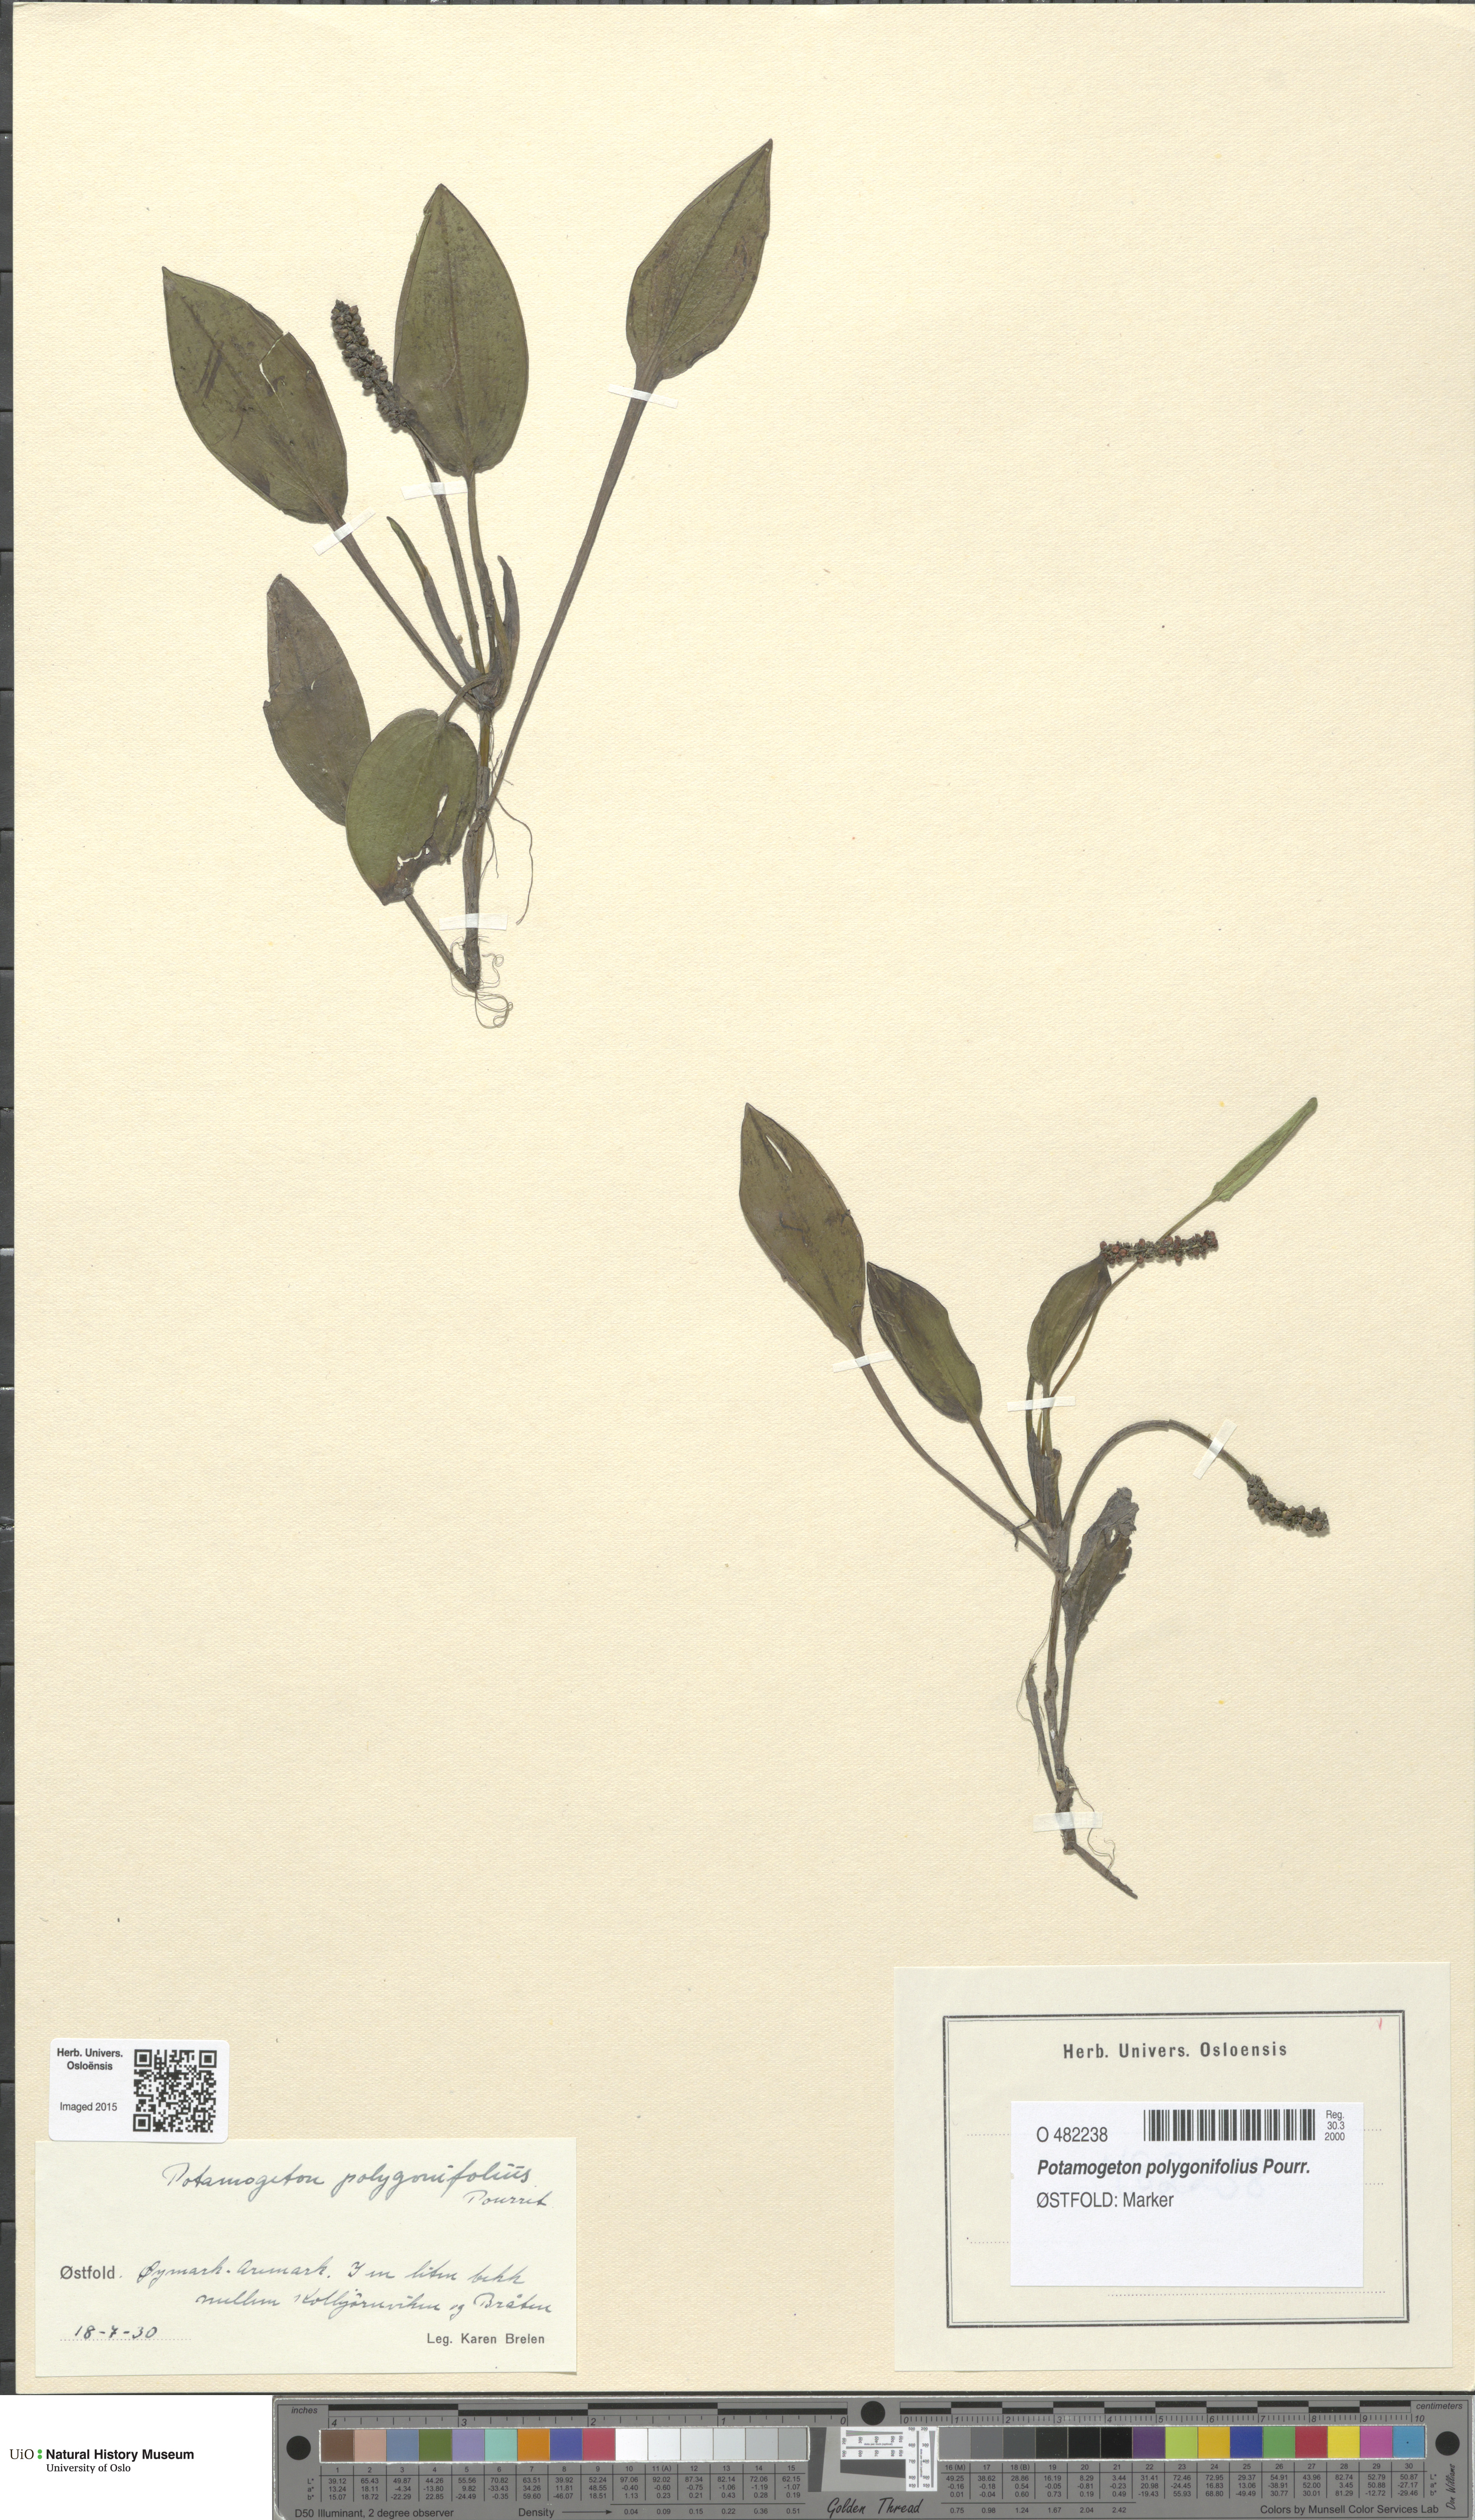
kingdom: Plantae
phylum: Tracheophyta
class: Liliopsida
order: Alismatales
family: Potamogetonaceae
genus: Potamogeton
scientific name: Potamogeton polygonifolius
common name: Bog pondweed
